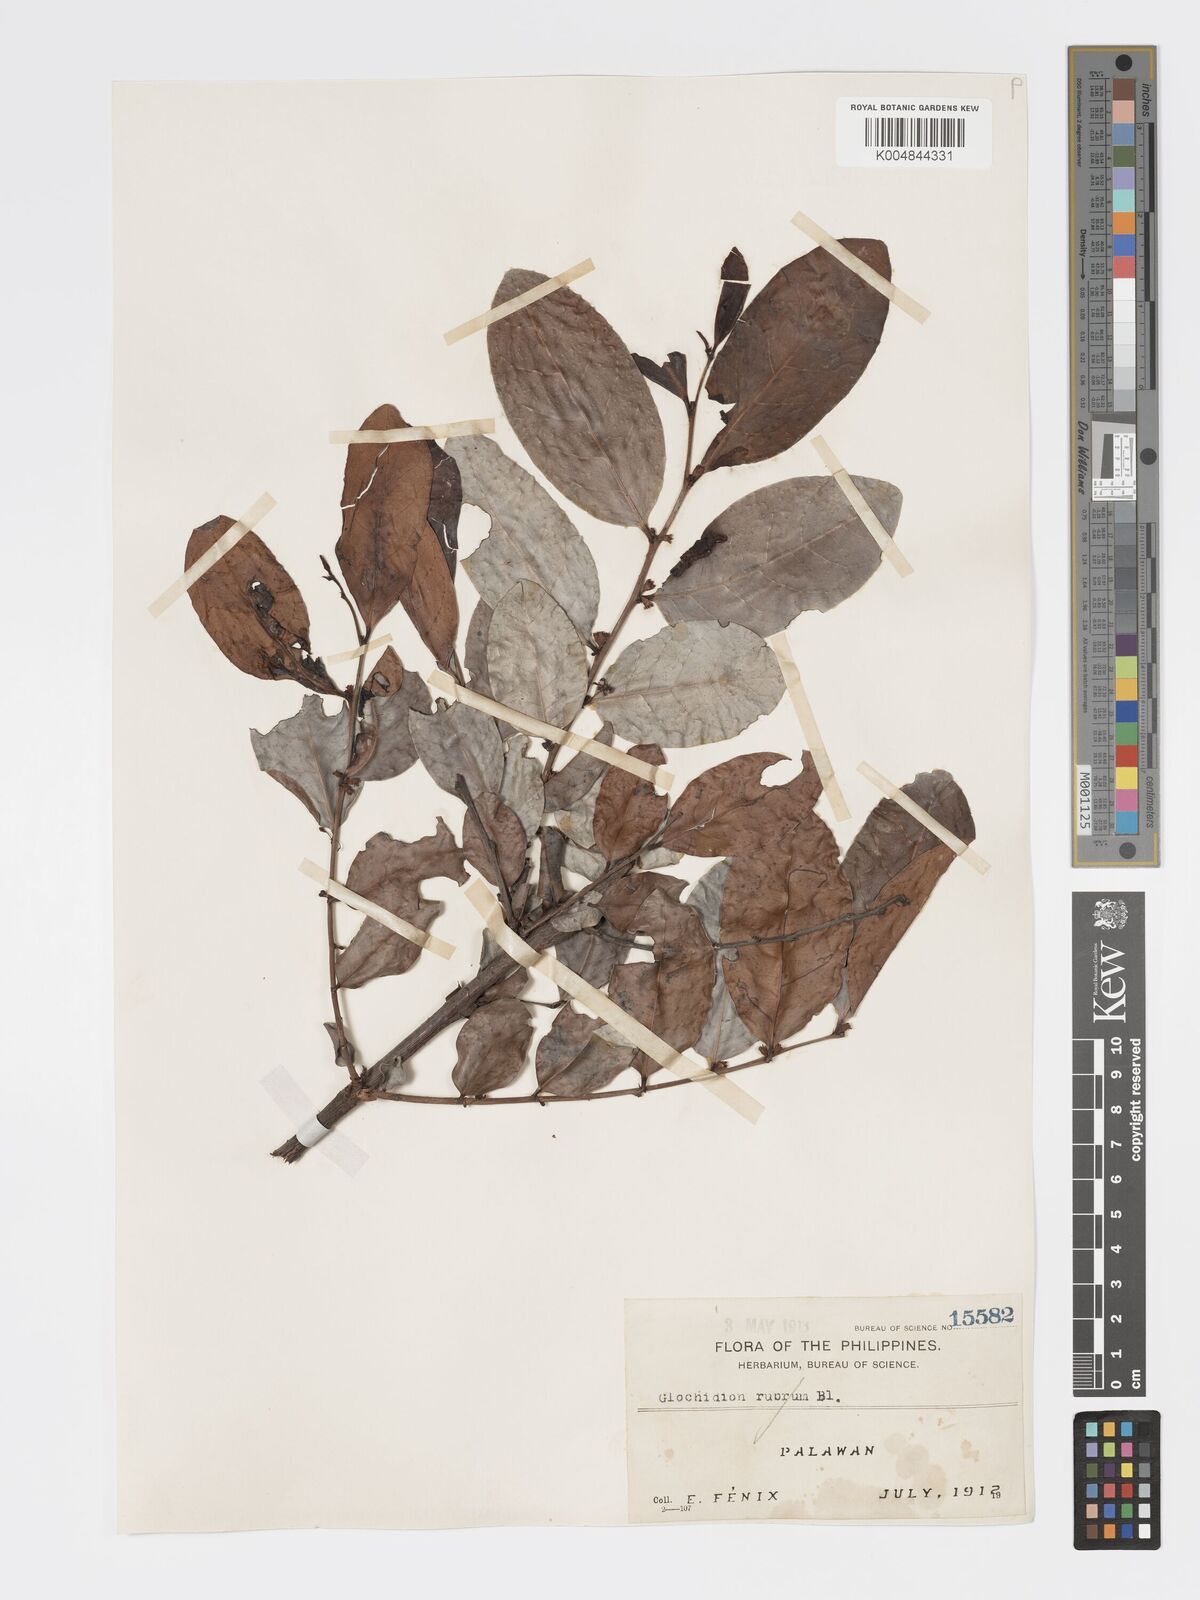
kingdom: Plantae
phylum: Tracheophyta
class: Magnoliopsida
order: Malpighiales
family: Phyllanthaceae
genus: Glochidion
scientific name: Glochidion
